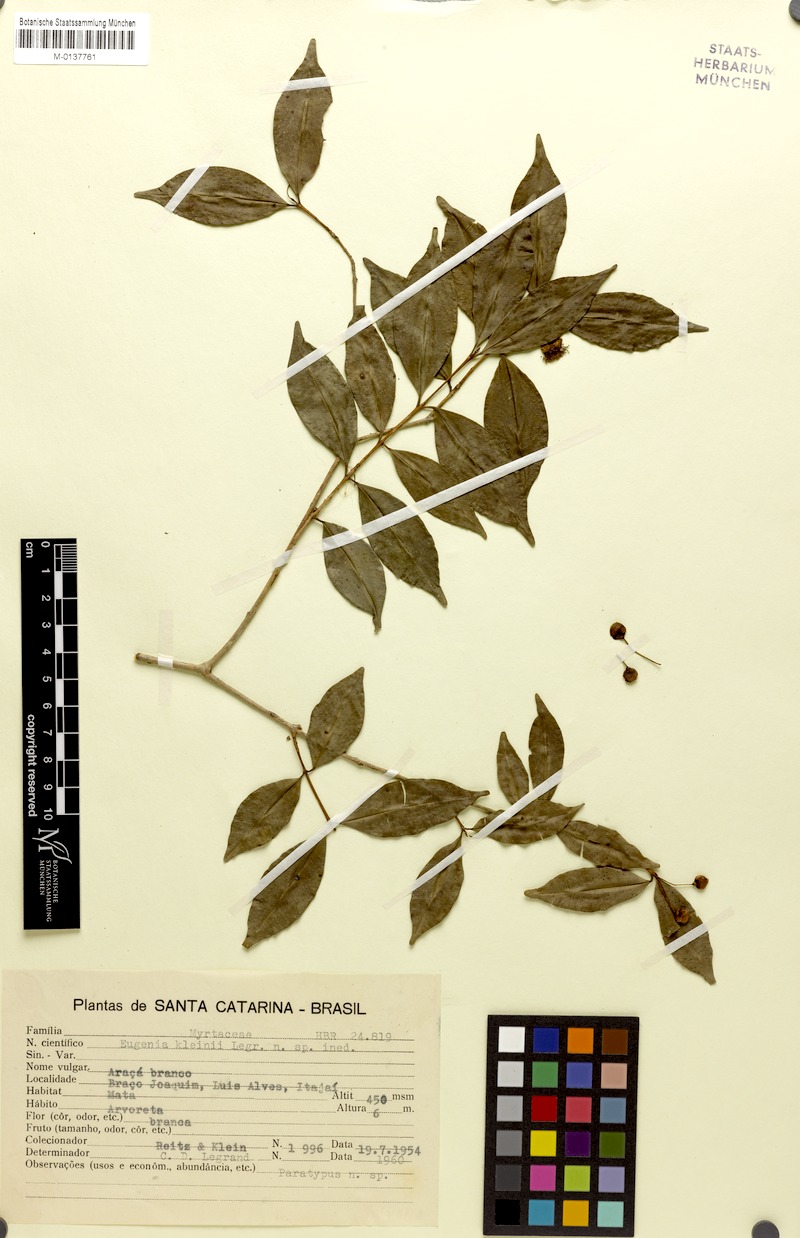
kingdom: Plantae
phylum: Tracheophyta
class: Magnoliopsida
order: Myrtales
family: Myrtaceae
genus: Eugenia
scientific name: Eugenia kleinii
